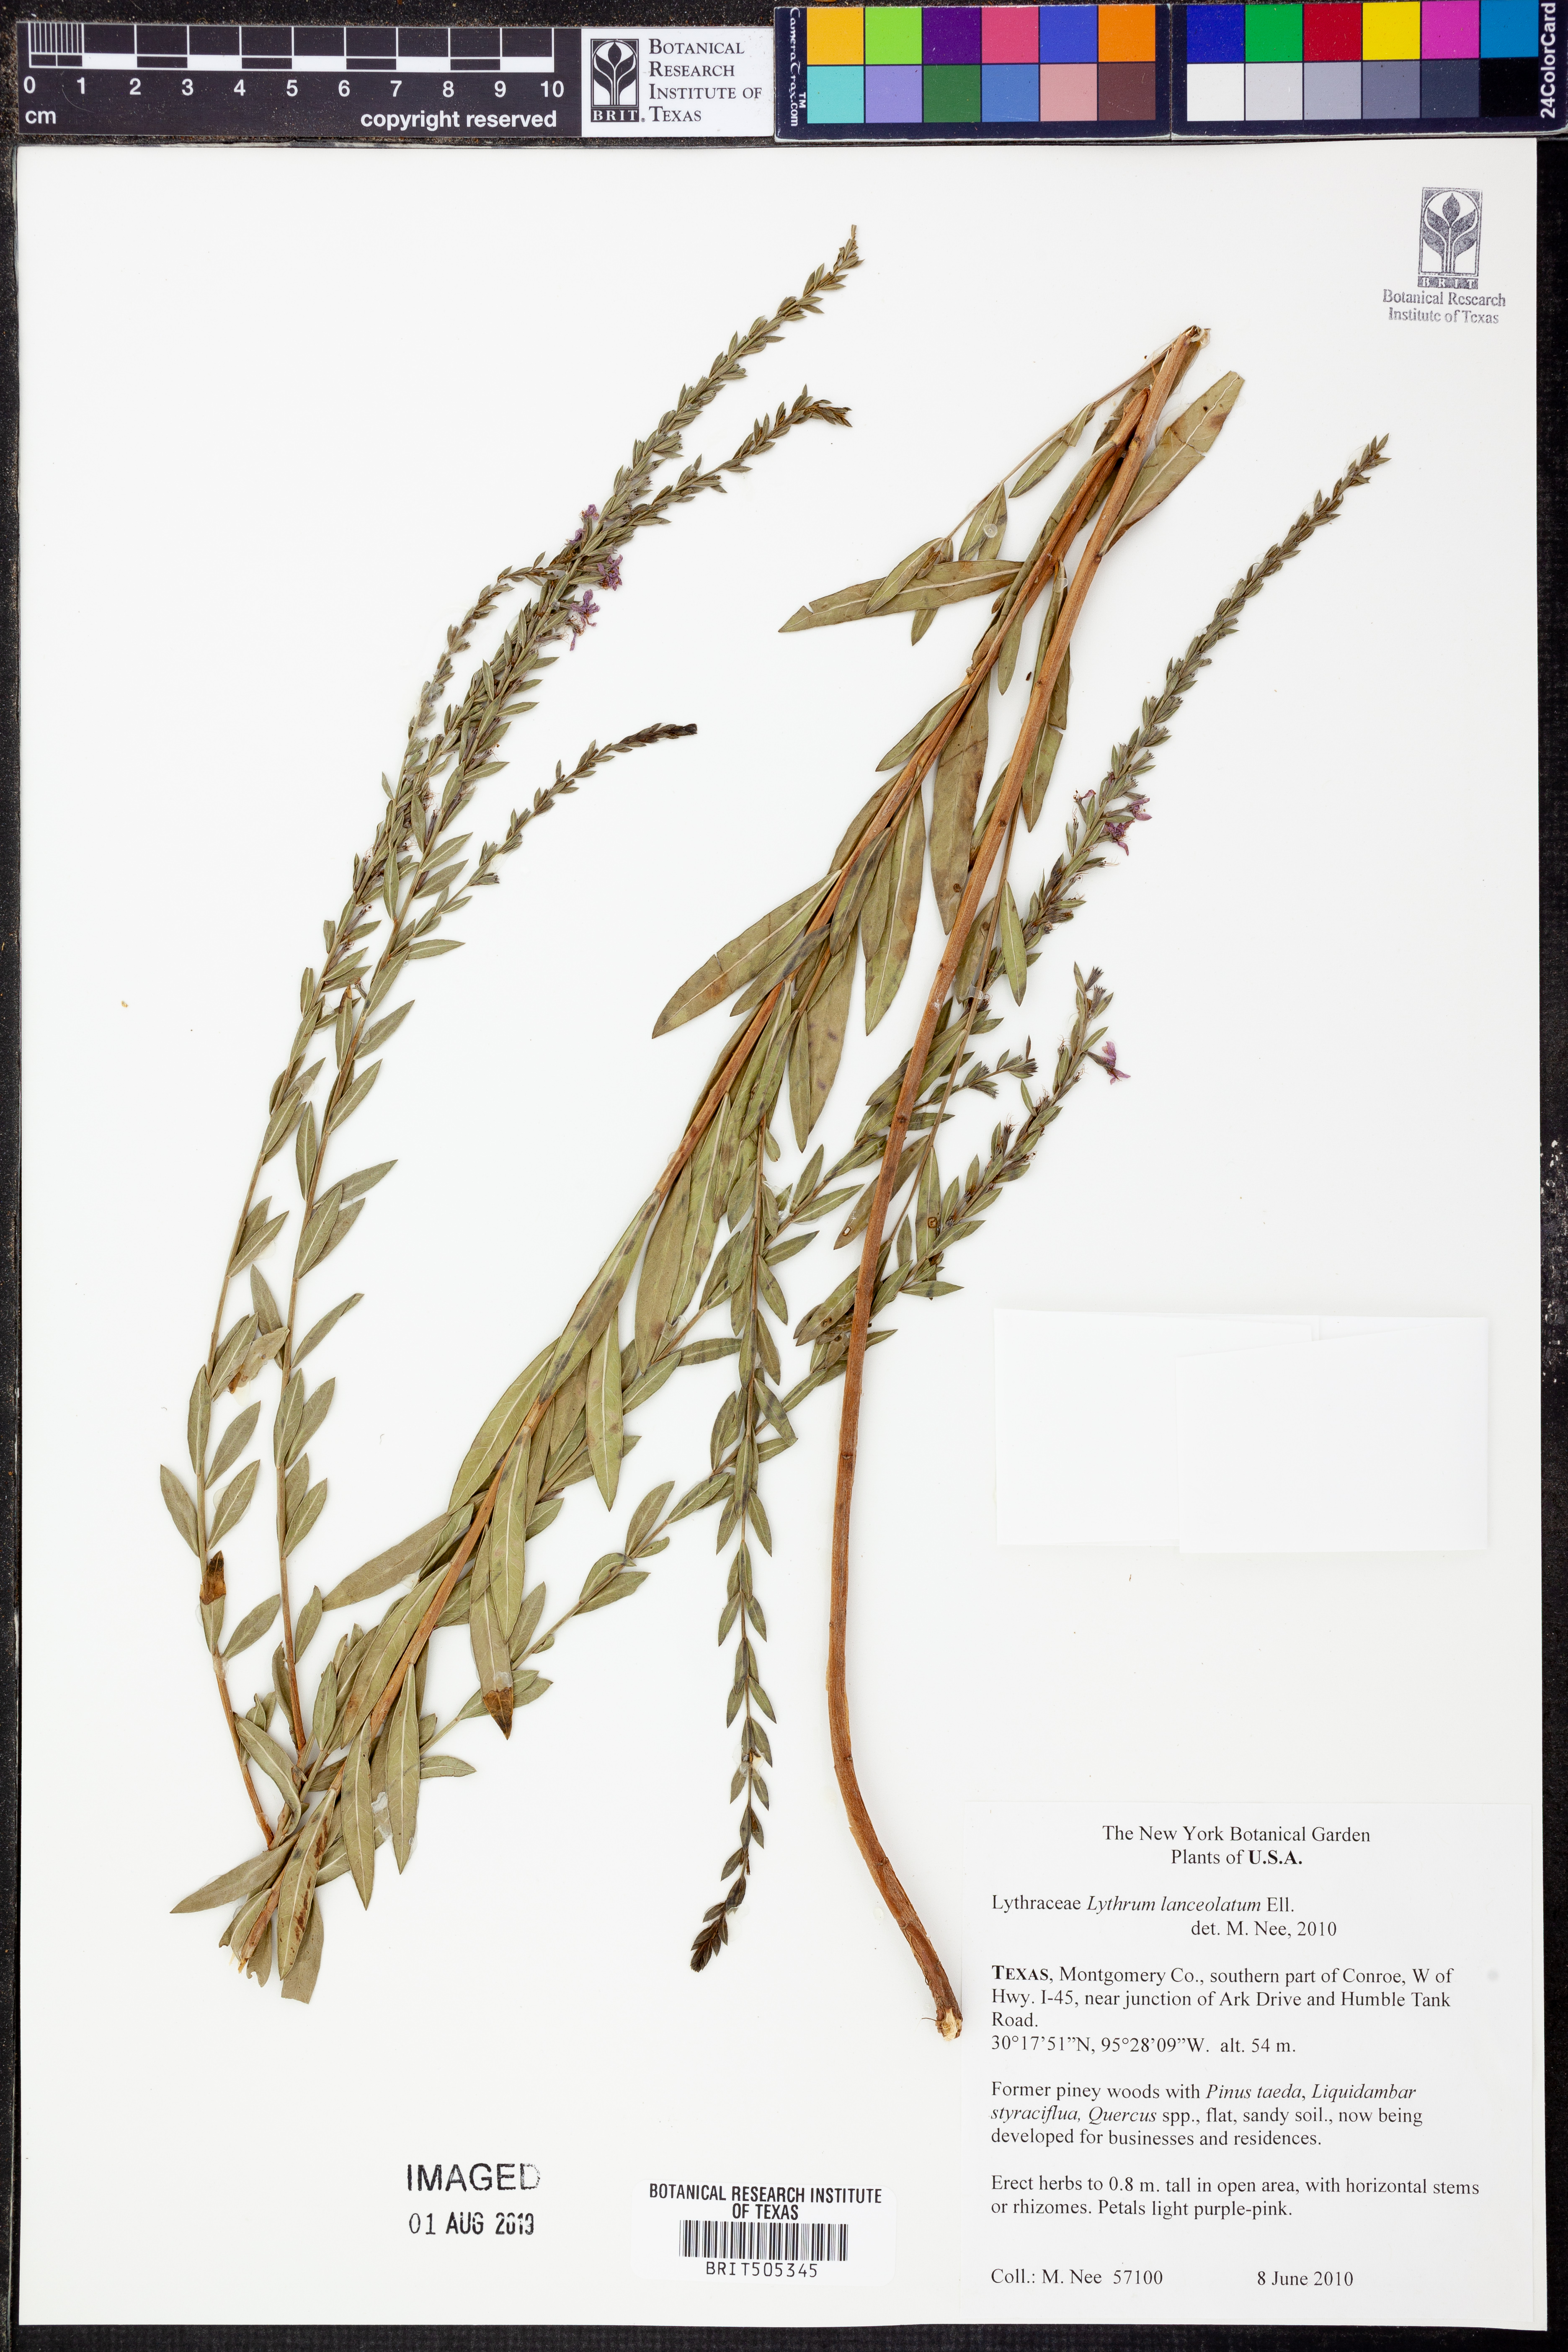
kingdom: Plantae
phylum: Tracheophyta
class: Magnoliopsida
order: Myrtales
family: Lythraceae
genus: Lythrum
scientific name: Lythrum alatum
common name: Winged loosestrife
